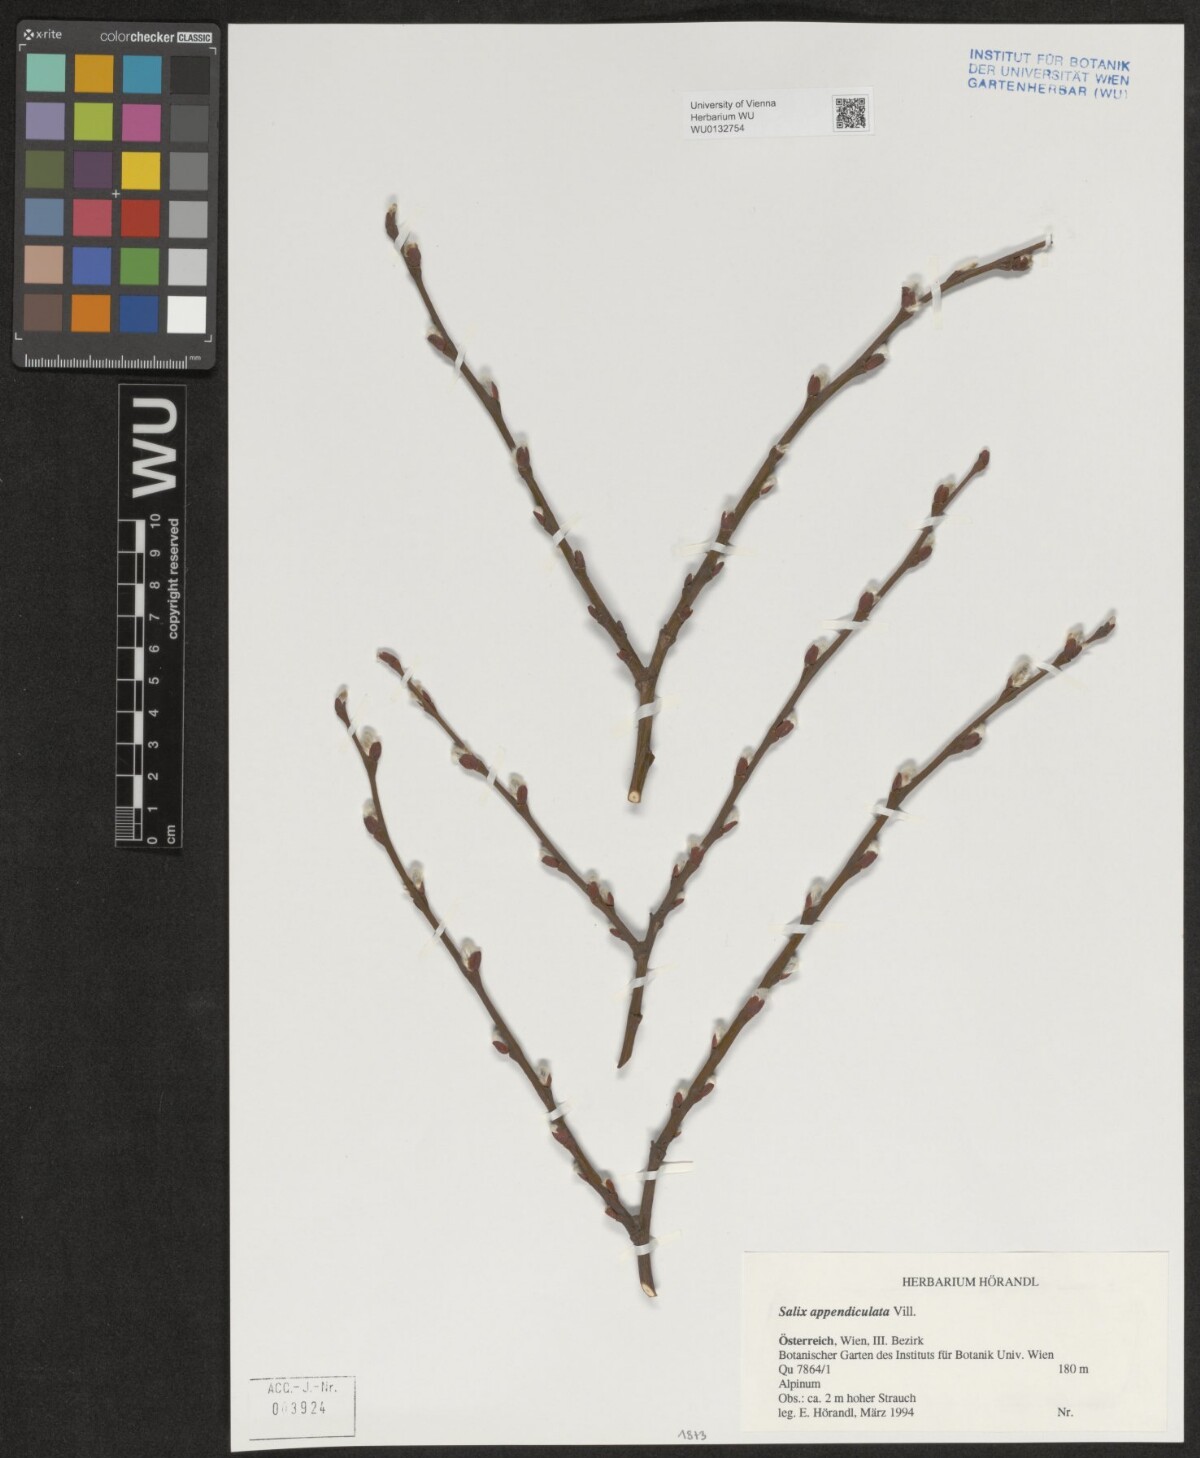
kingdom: Plantae
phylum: Tracheophyta
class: Magnoliopsida
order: Malpighiales
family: Salicaceae
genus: Salix
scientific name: Salix appendiculata
